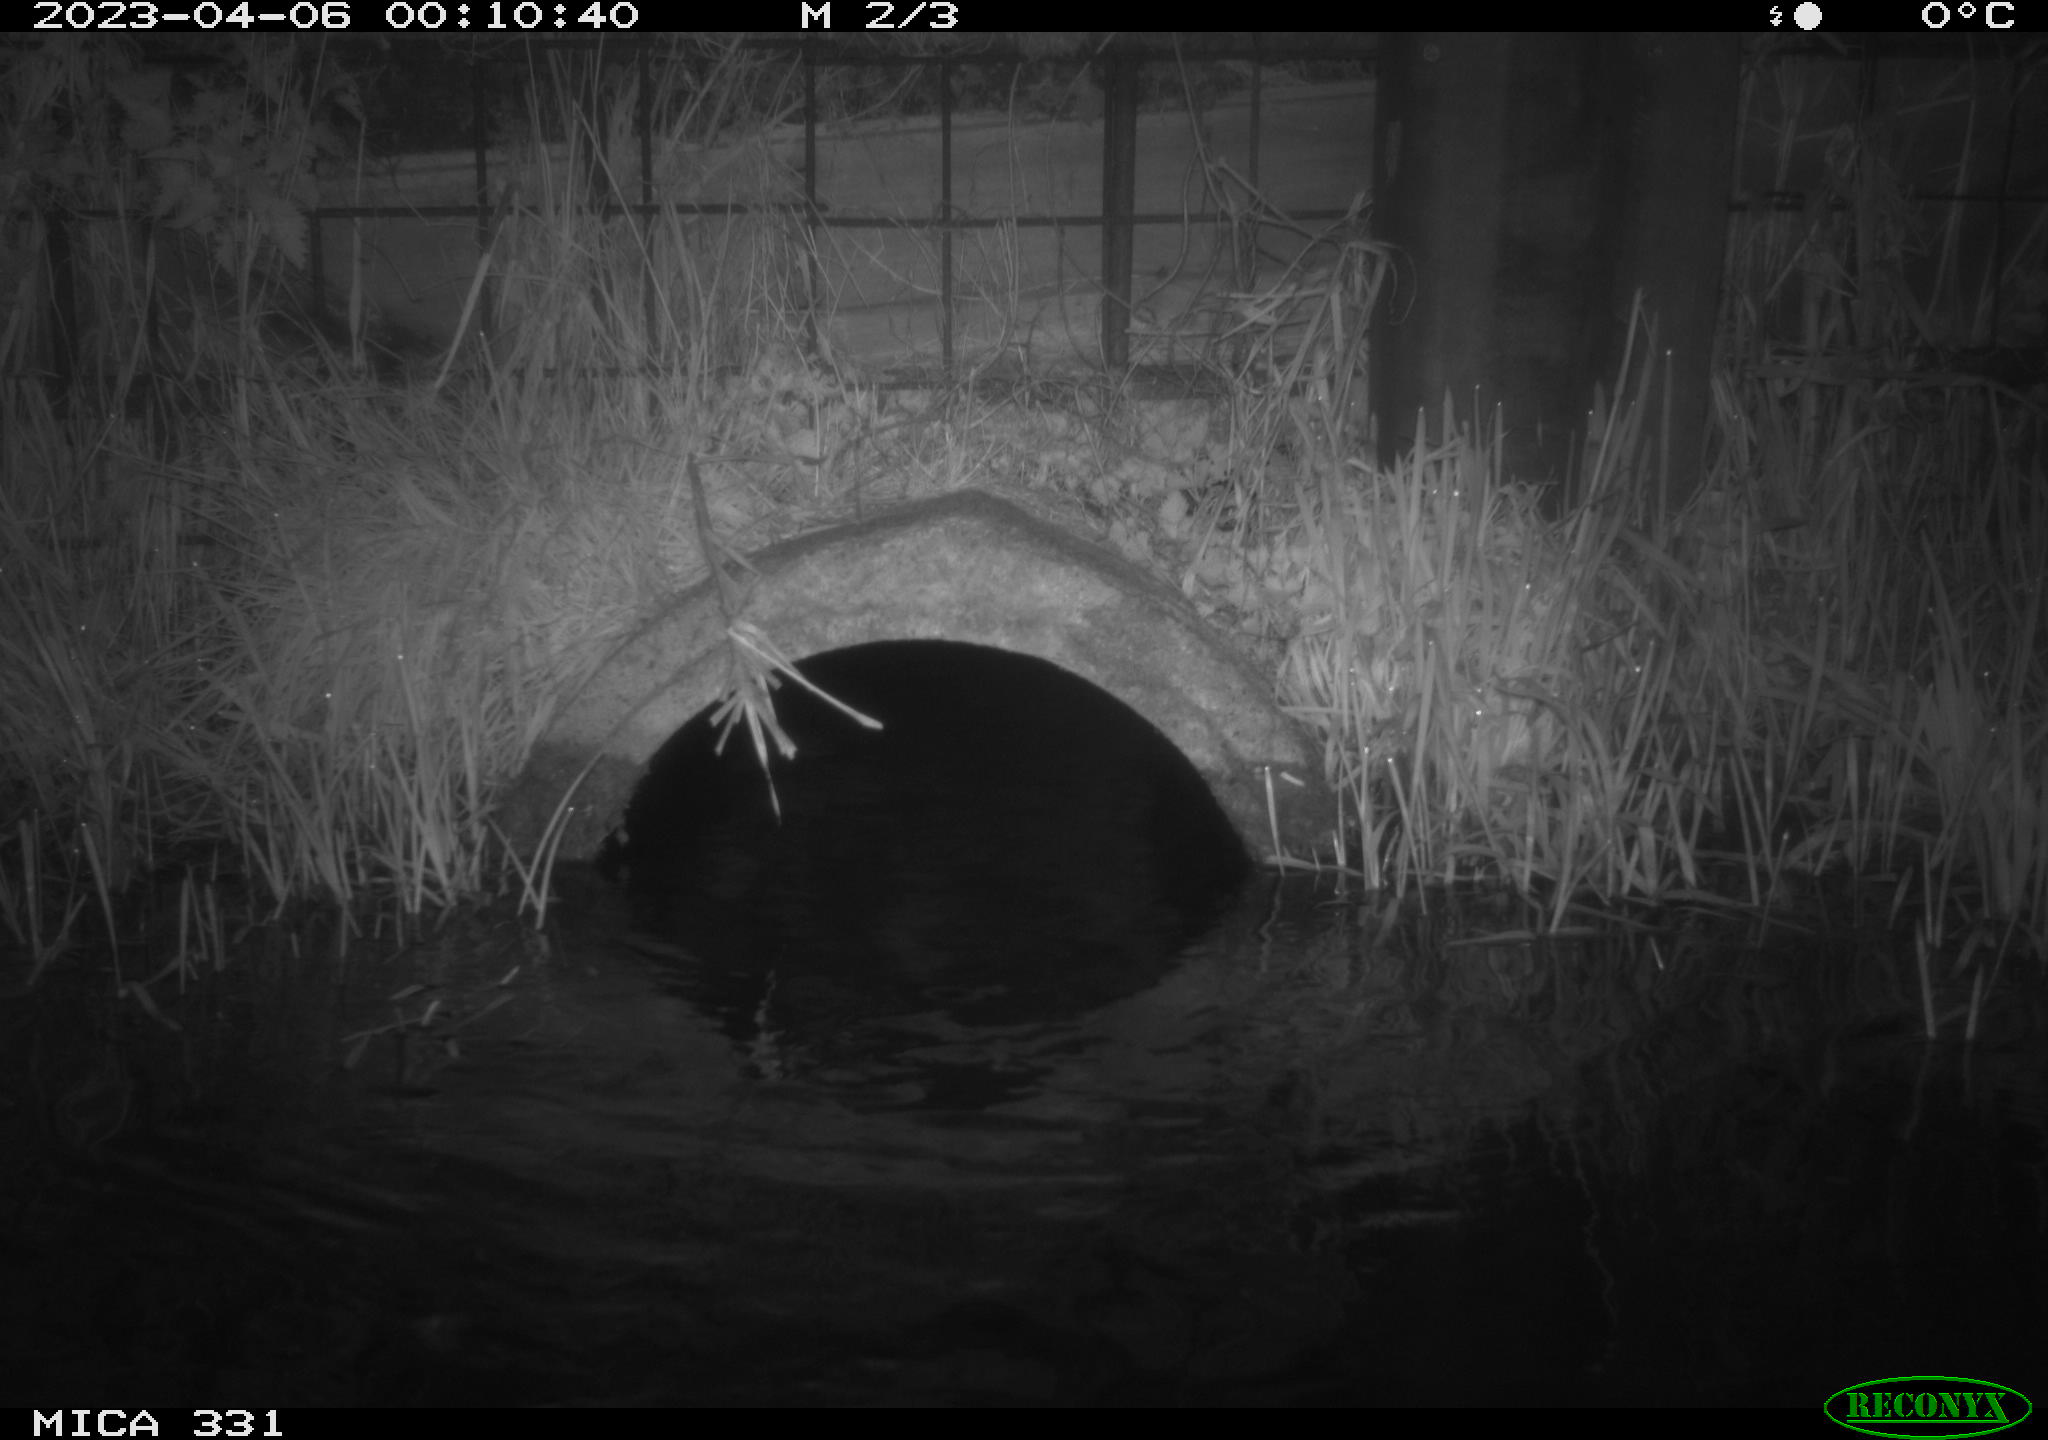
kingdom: Animalia
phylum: Chordata
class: Mammalia
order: Rodentia
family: Muridae
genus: Rattus
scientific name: Rattus norvegicus
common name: Brown rat
